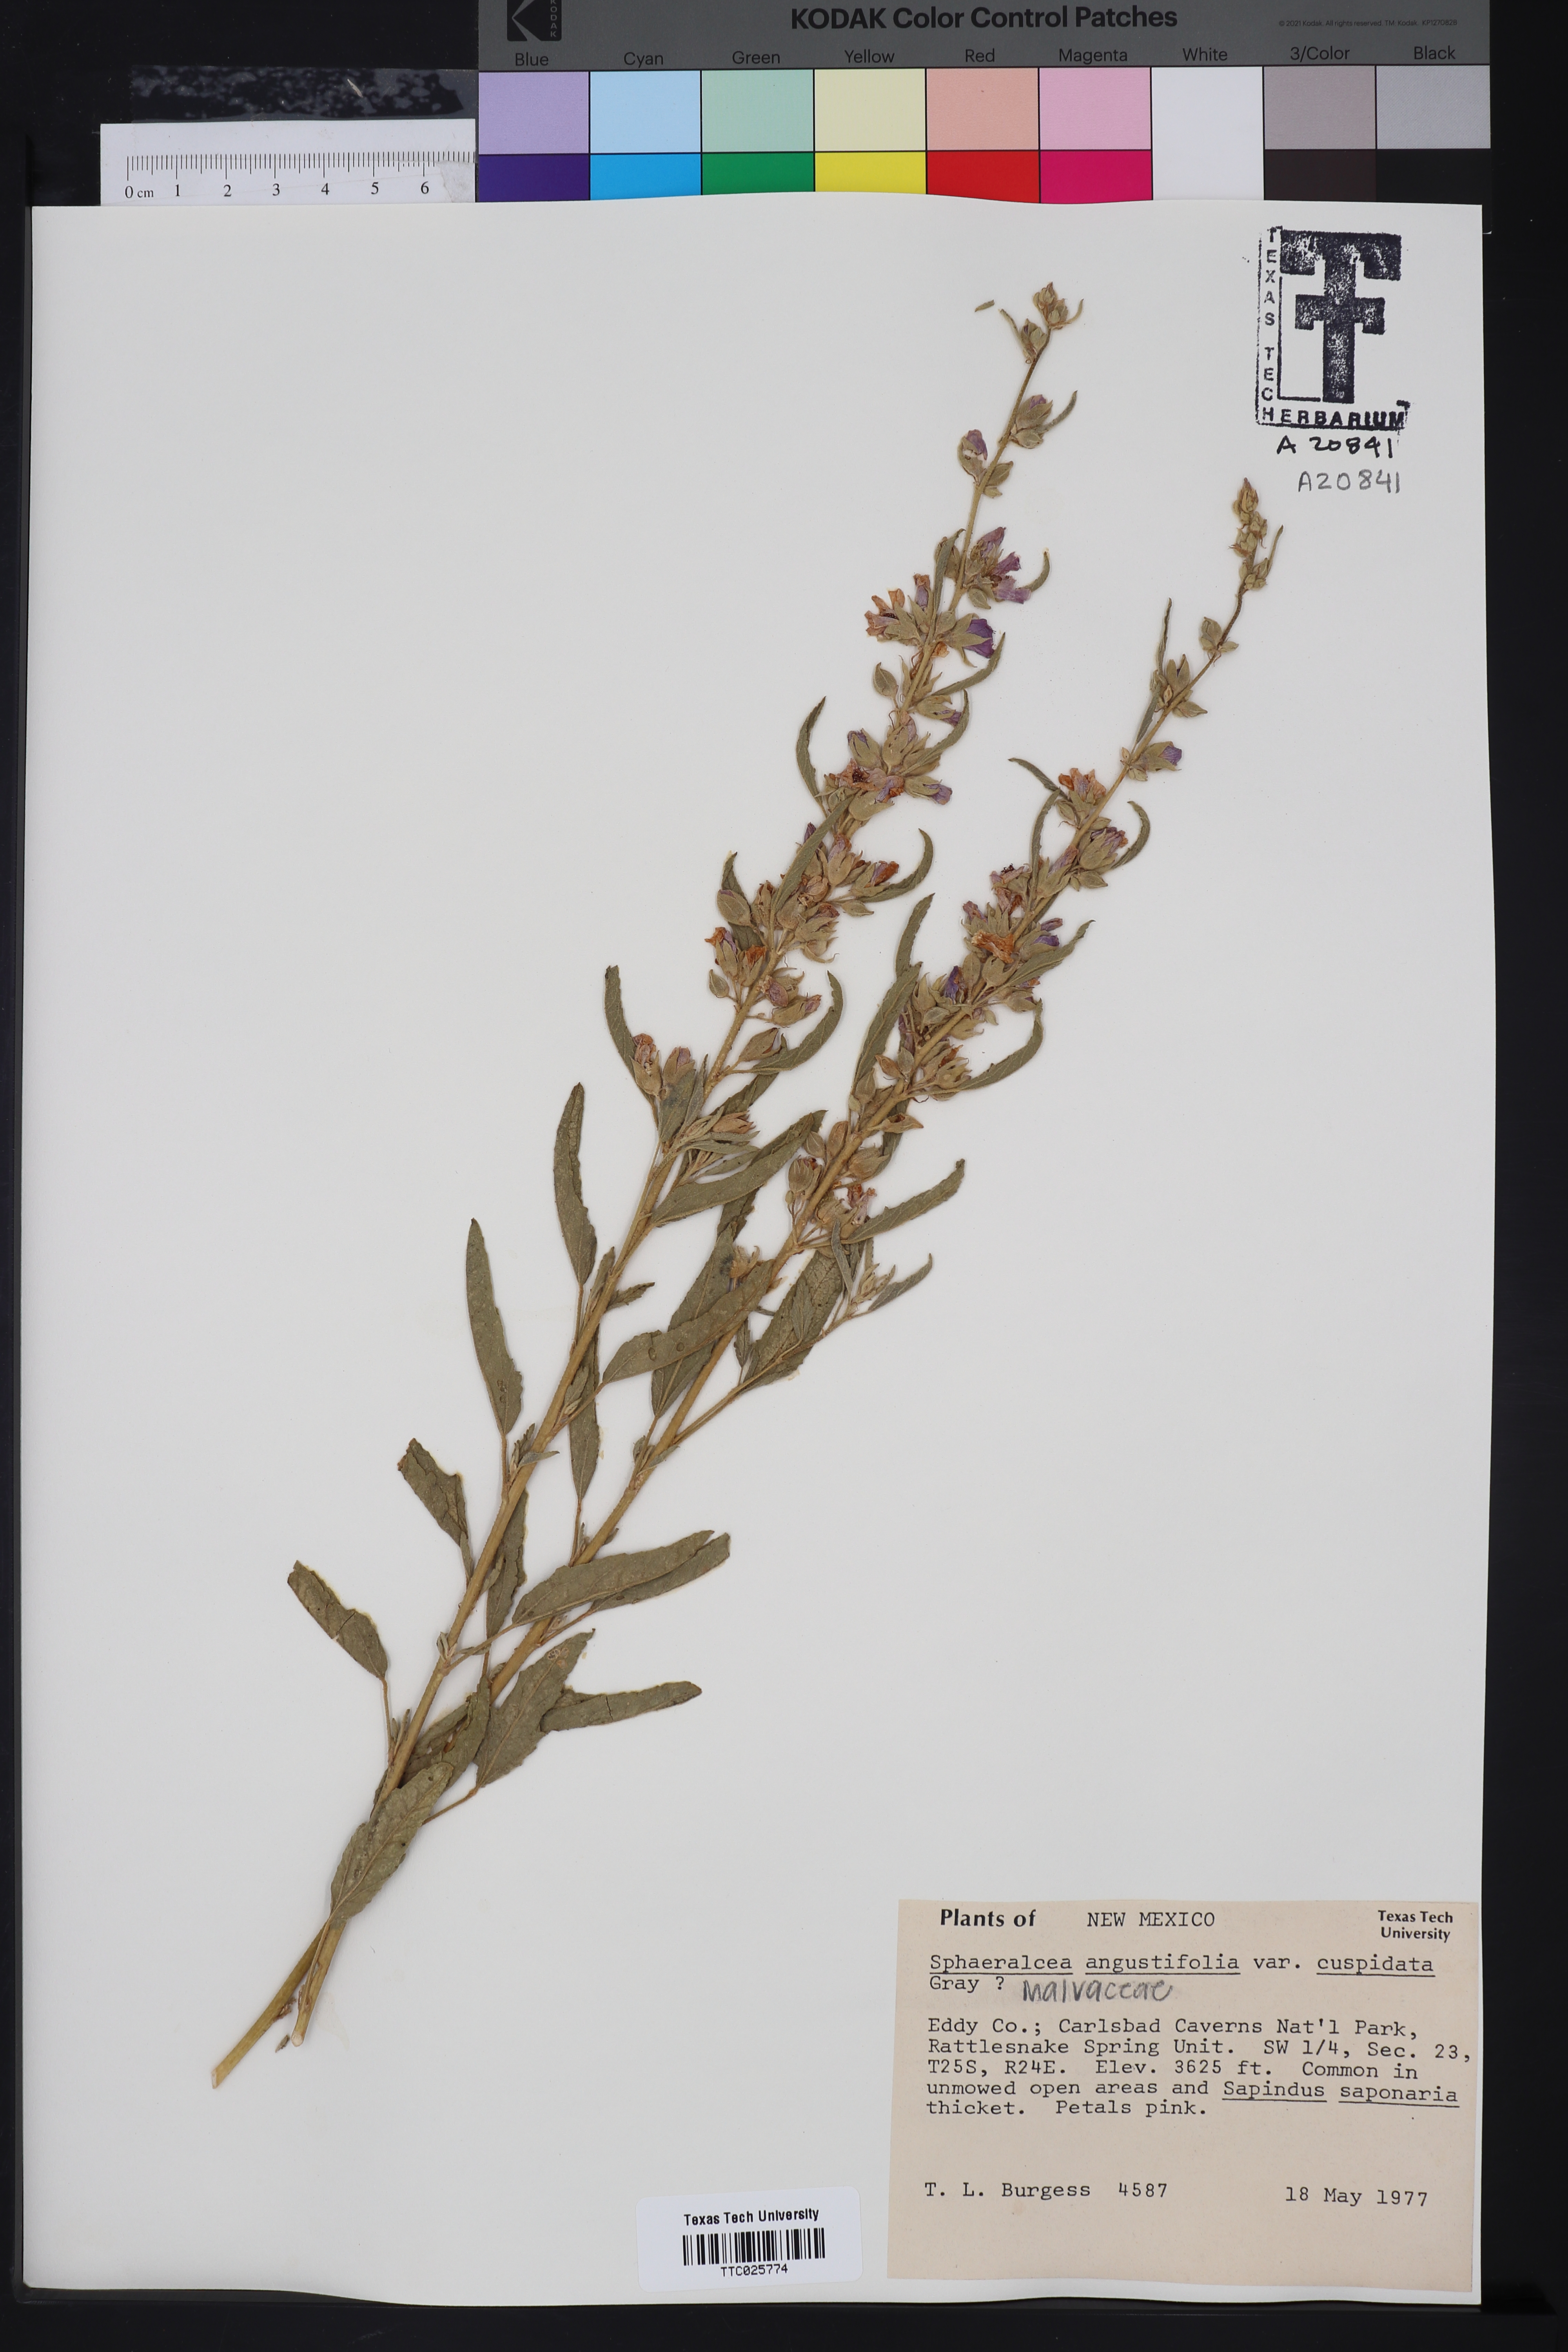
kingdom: Plantae
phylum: Tracheophyta
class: Magnoliopsida
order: Malvales
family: Malvaceae
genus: Sphaeralcea
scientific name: Sphaeralcea angustifolia
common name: Copper globe-mallow
